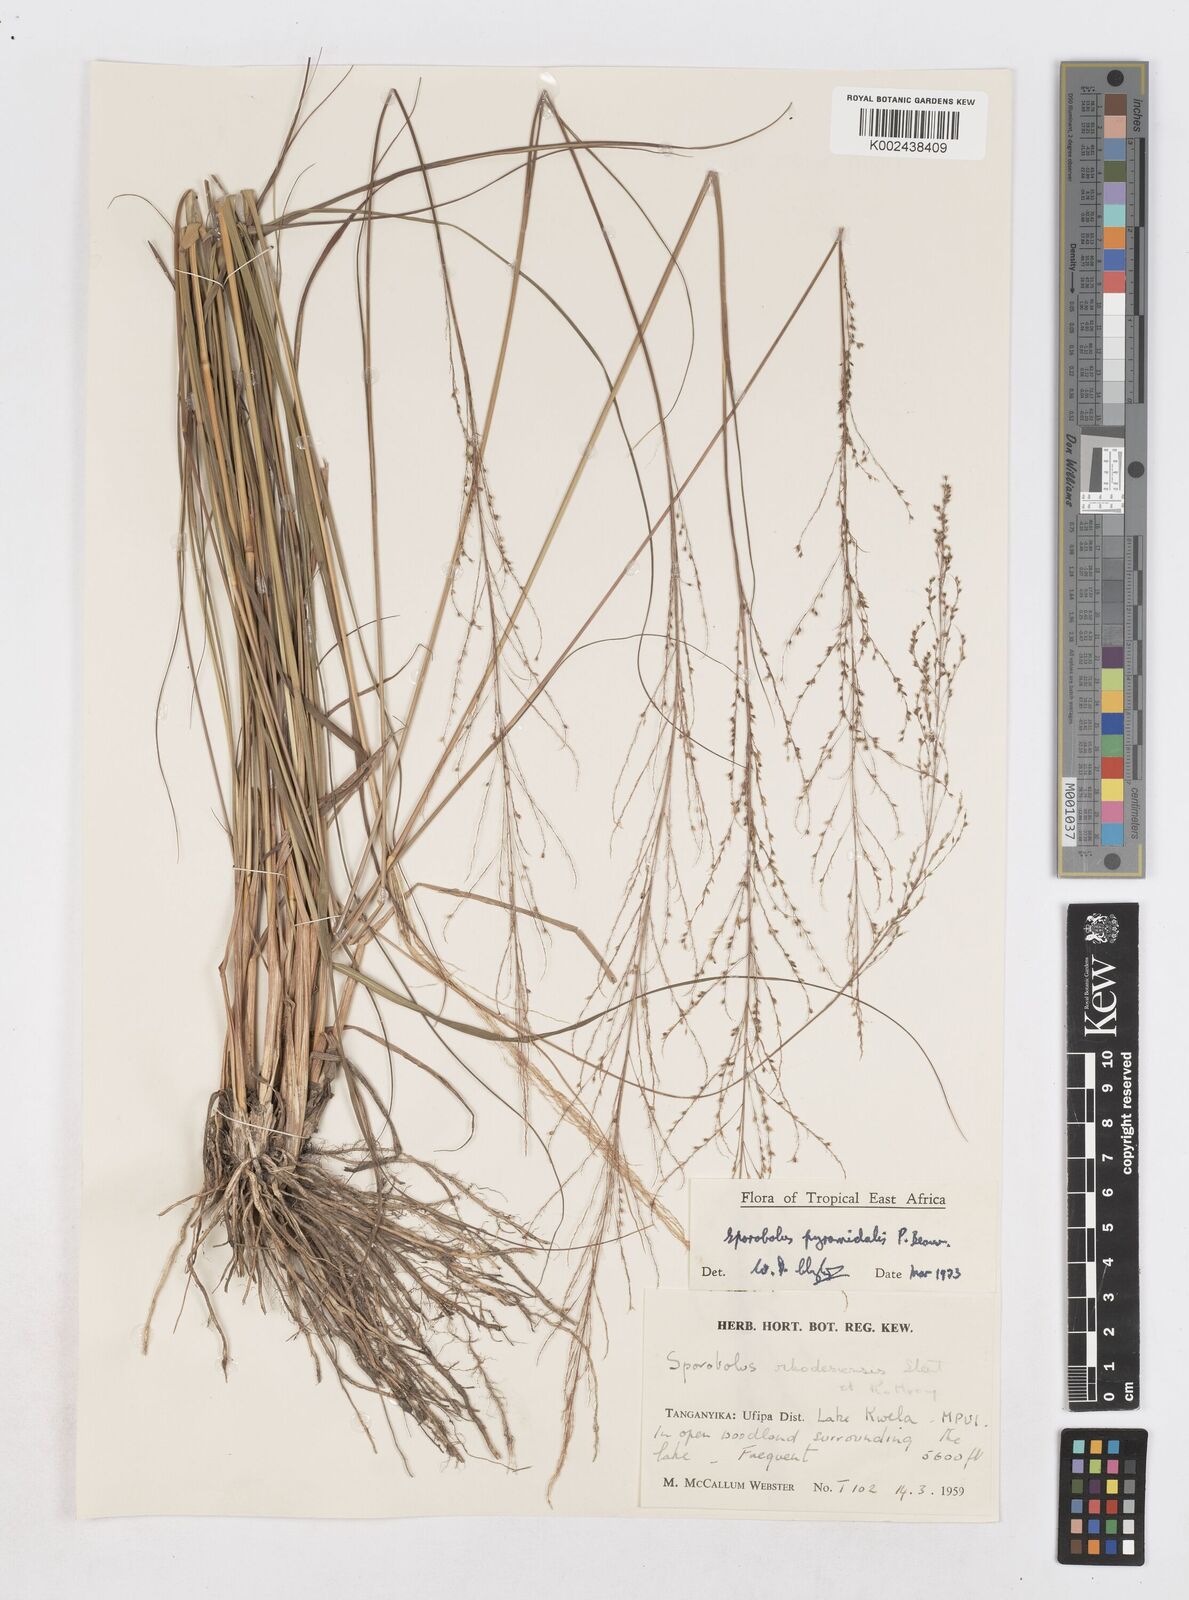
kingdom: Plantae
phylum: Tracheophyta
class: Liliopsida
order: Poales
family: Poaceae
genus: Sporobolus
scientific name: Sporobolus pyramidalis
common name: West indian dropseed
